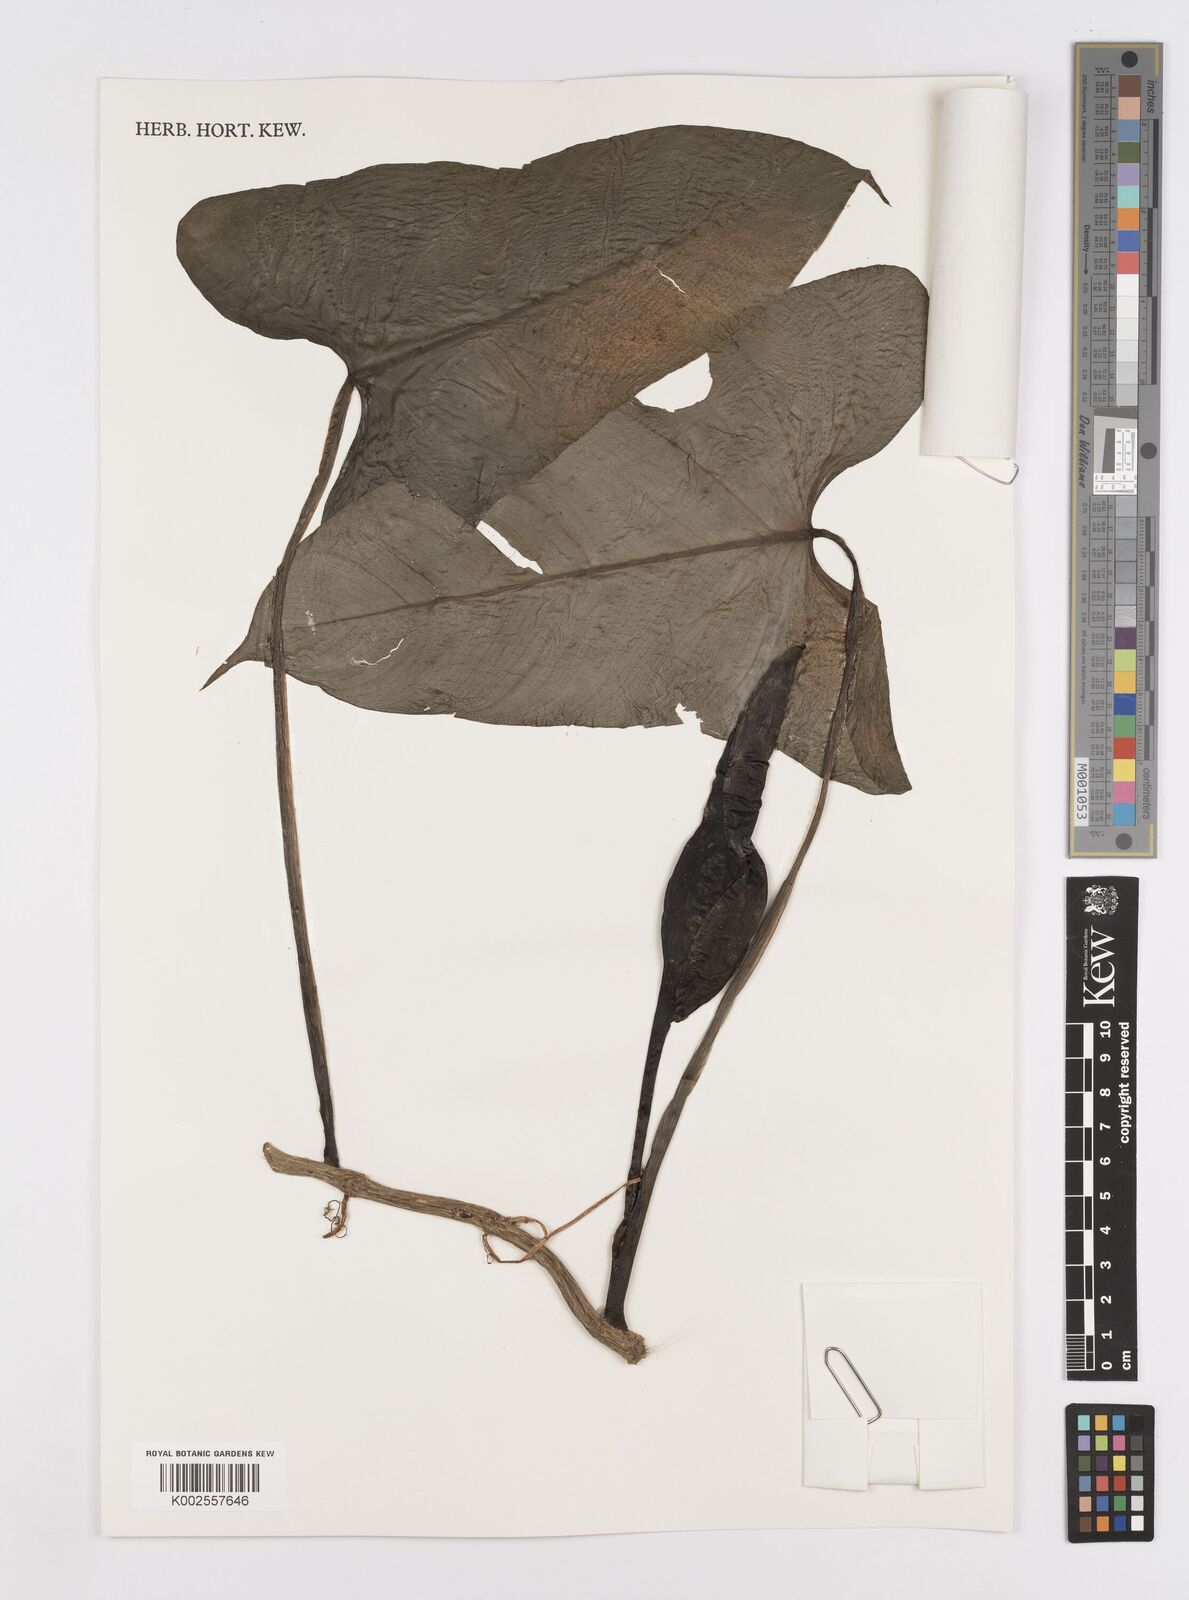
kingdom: Plantae
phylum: Tracheophyta
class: Liliopsida
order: Alismatales
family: Araceae
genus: Philodendron
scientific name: Philodendron wilburii
